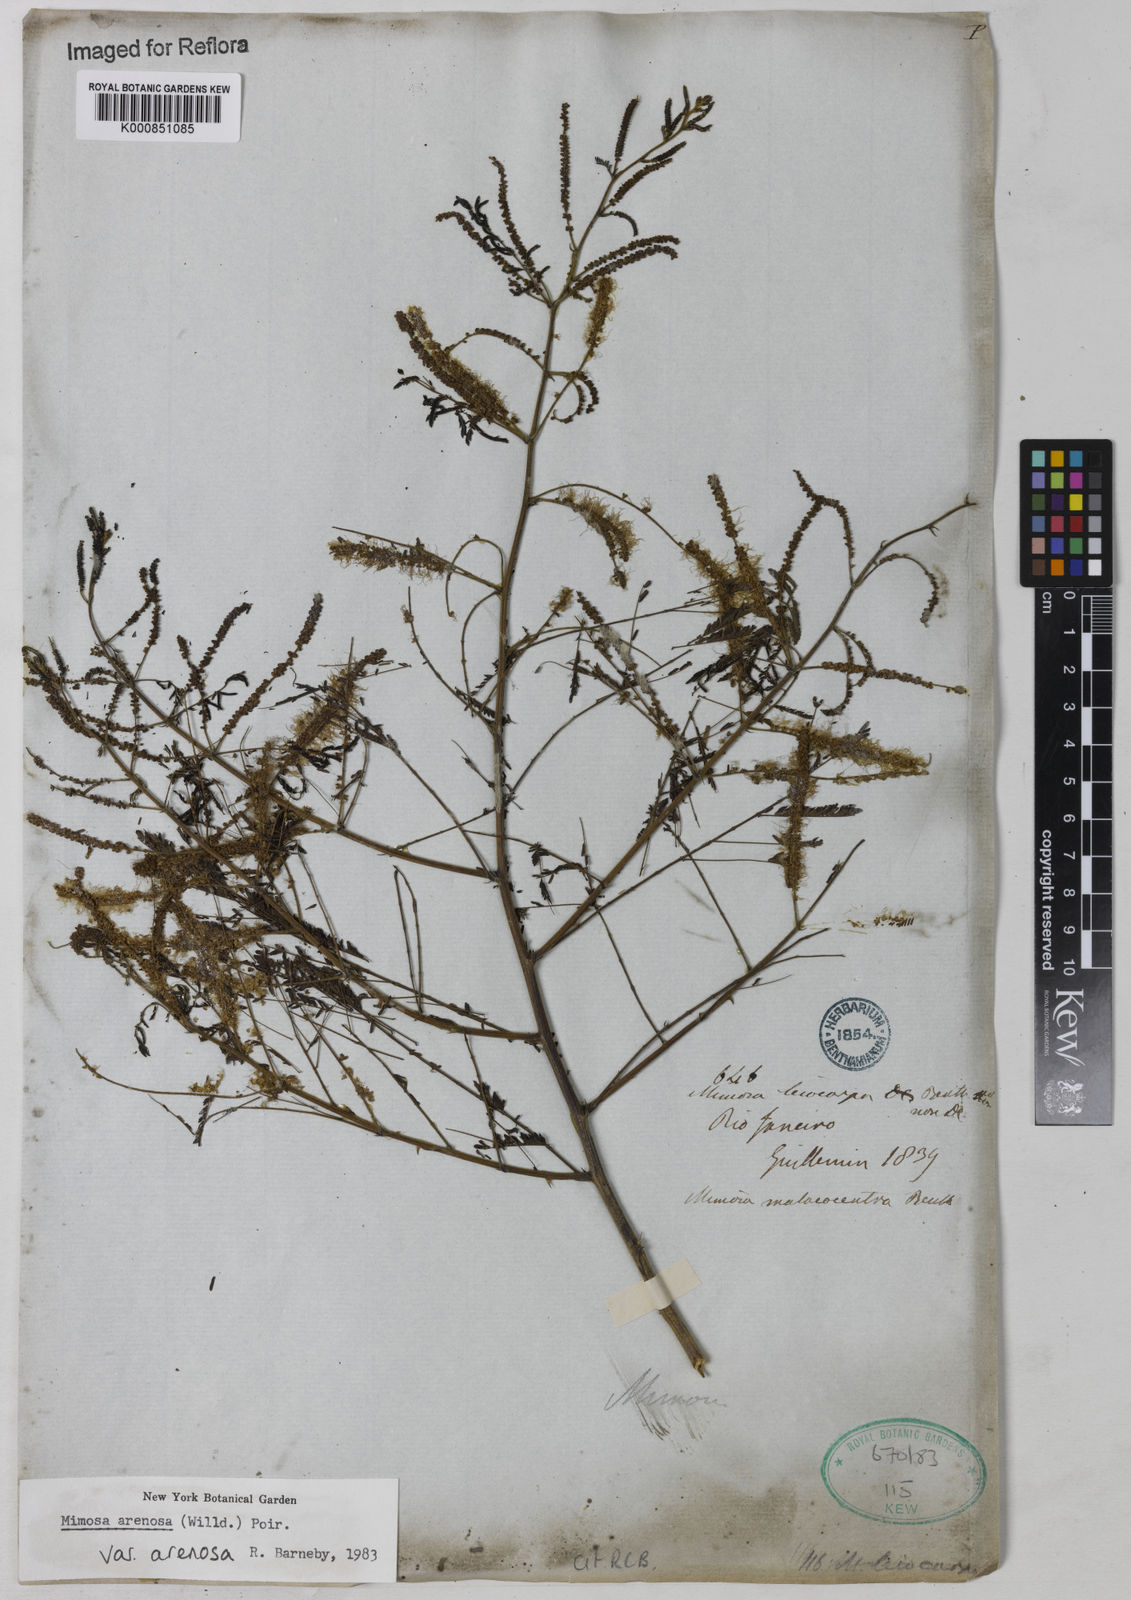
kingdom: Plantae
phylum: Tracheophyta
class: Magnoliopsida
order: Fabales
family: Fabaceae
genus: Mimosa
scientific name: Mimosa arenosa
